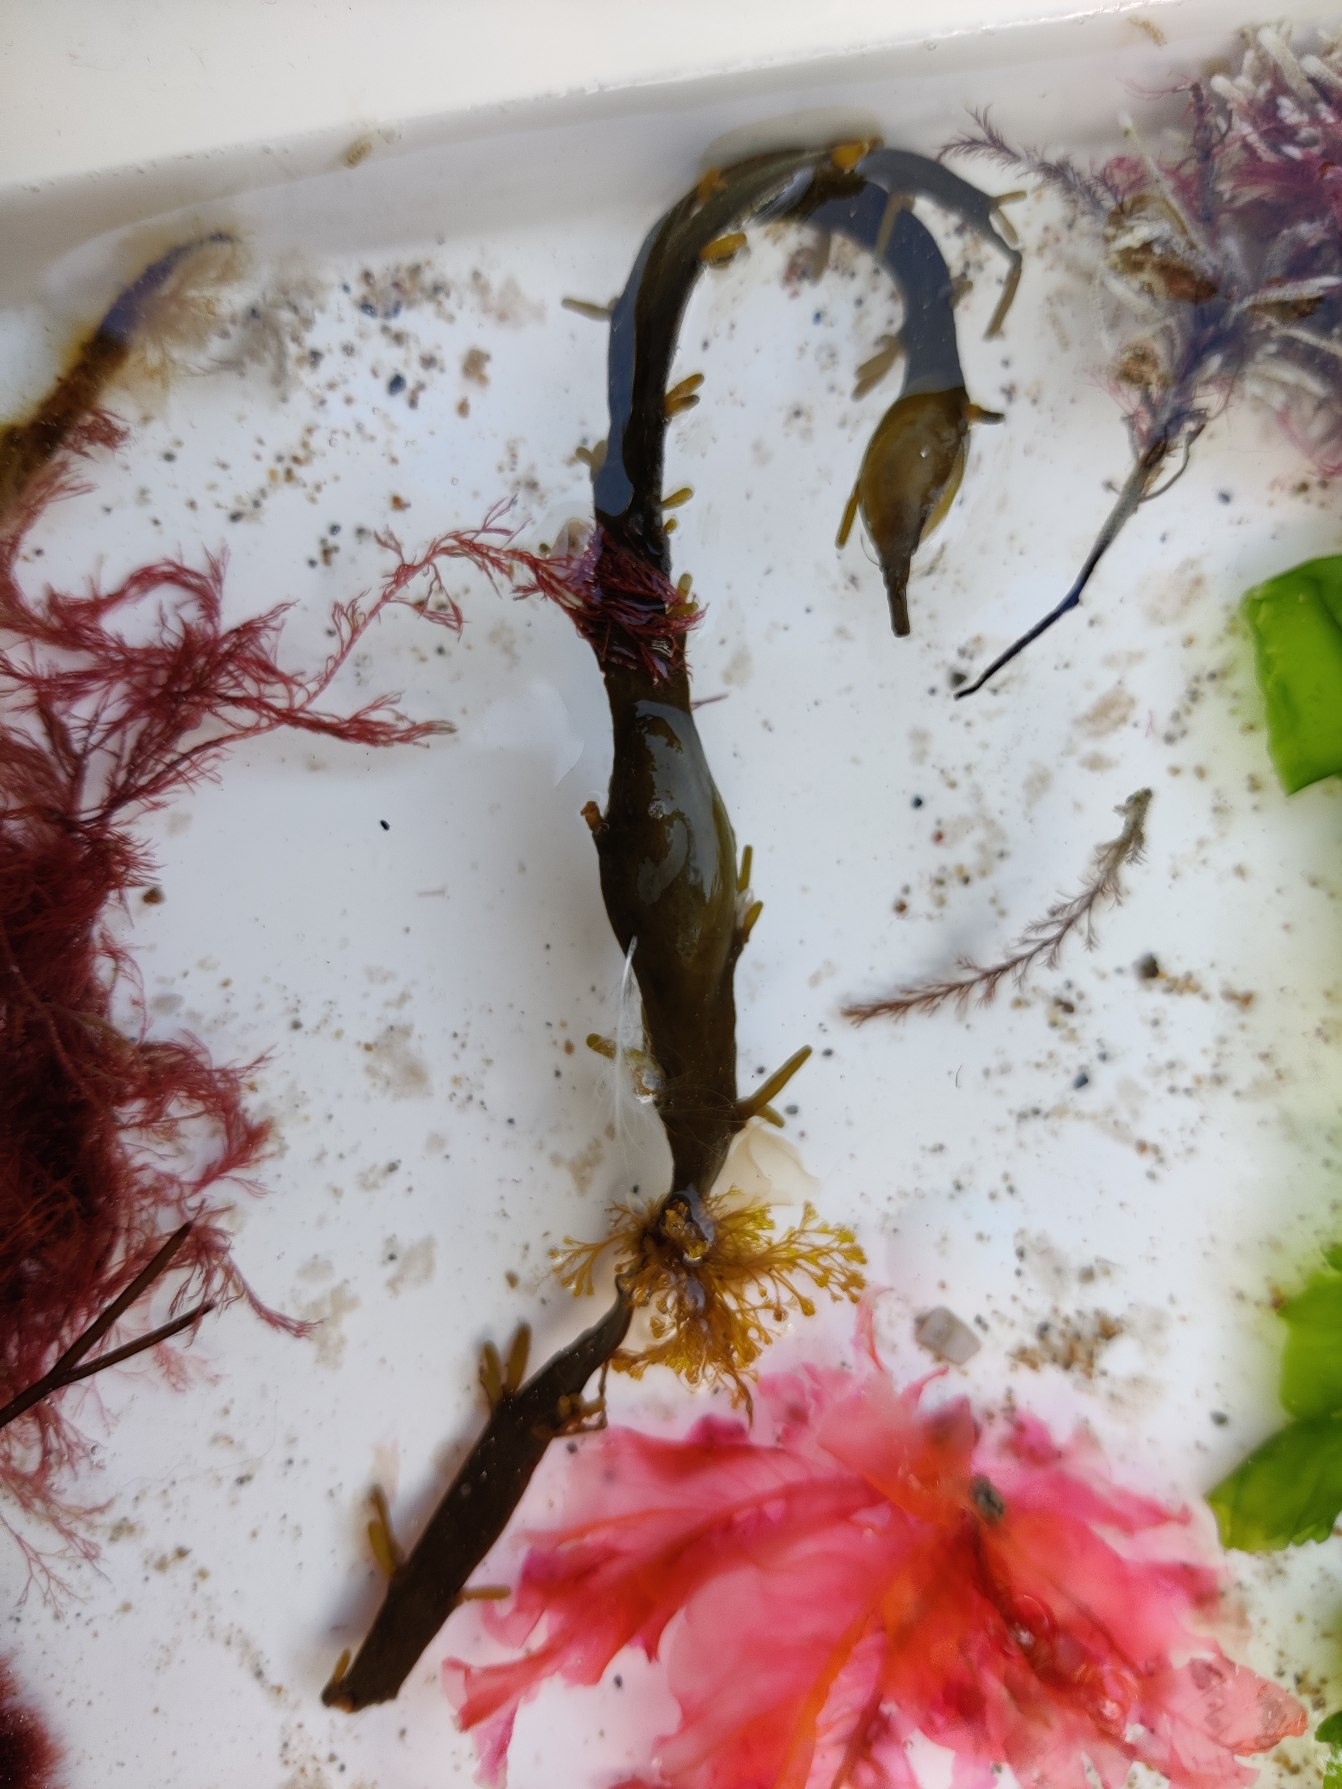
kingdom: Chromista
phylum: Ochrophyta
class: Phaeophyceae
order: Fucales
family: Fucaceae
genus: Ascophyllum
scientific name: Ascophyllum nodosum
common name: Buletang
